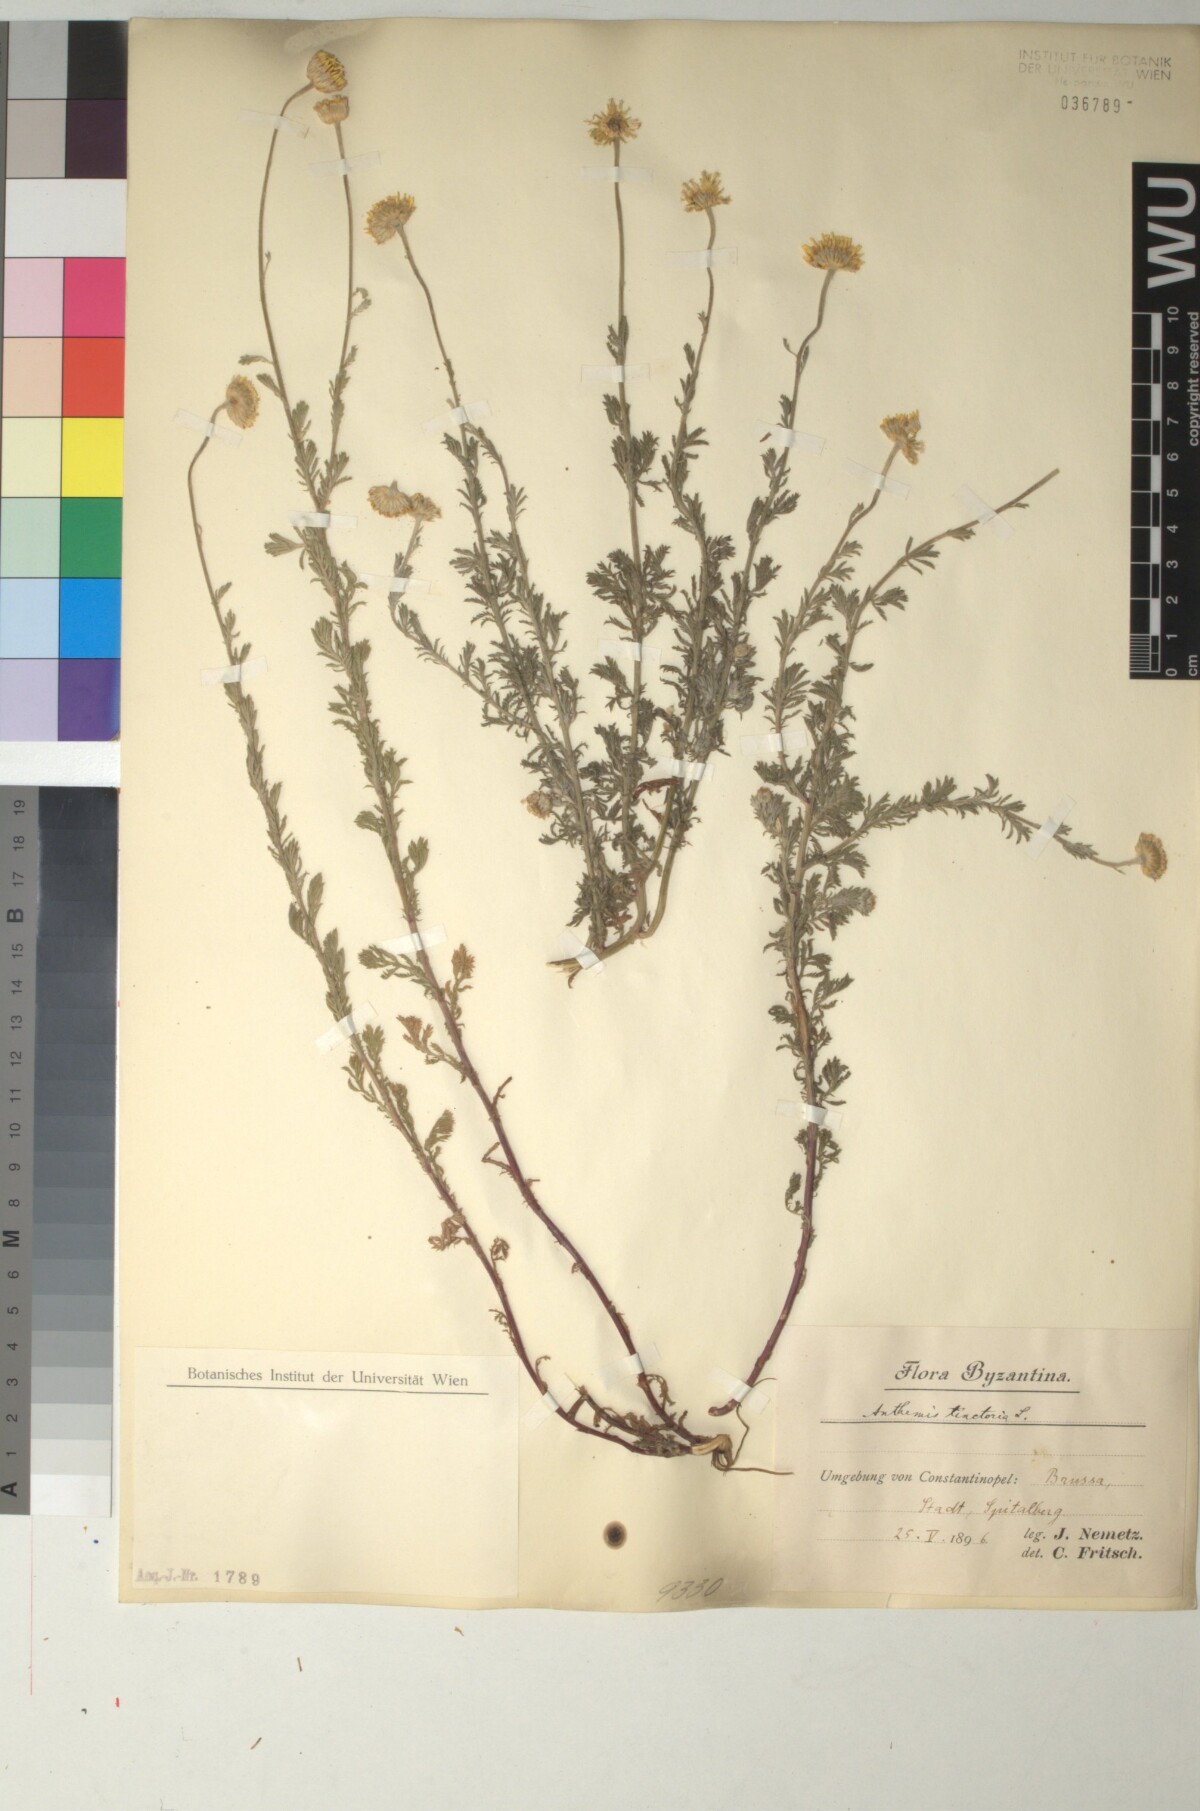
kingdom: Plantae
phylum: Tracheophyta
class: Magnoliopsida
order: Asterales
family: Asteraceae
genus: Cota
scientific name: Cota tinctoria
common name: Golden chamomile
